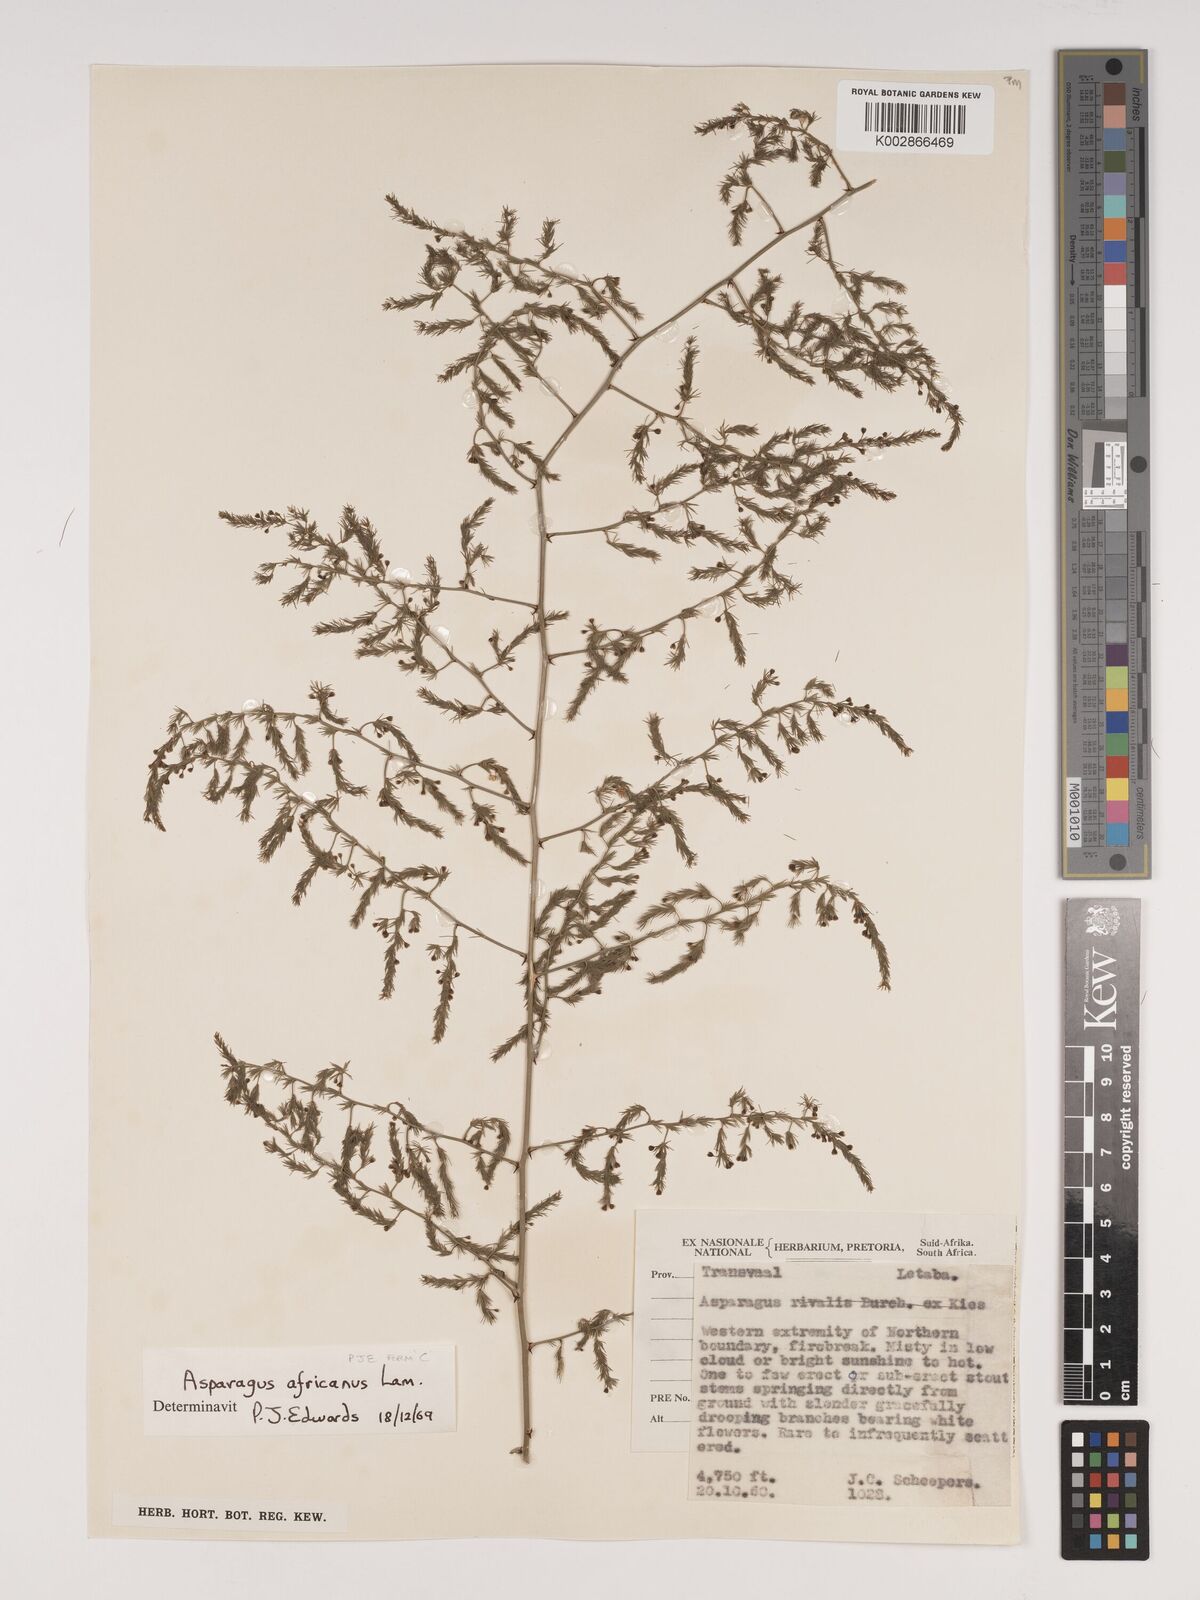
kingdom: Plantae
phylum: Tracheophyta
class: Liliopsida
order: Asparagales
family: Asparagaceae
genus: Asparagus
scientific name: Asparagus africanus
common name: Asparagus-fern
